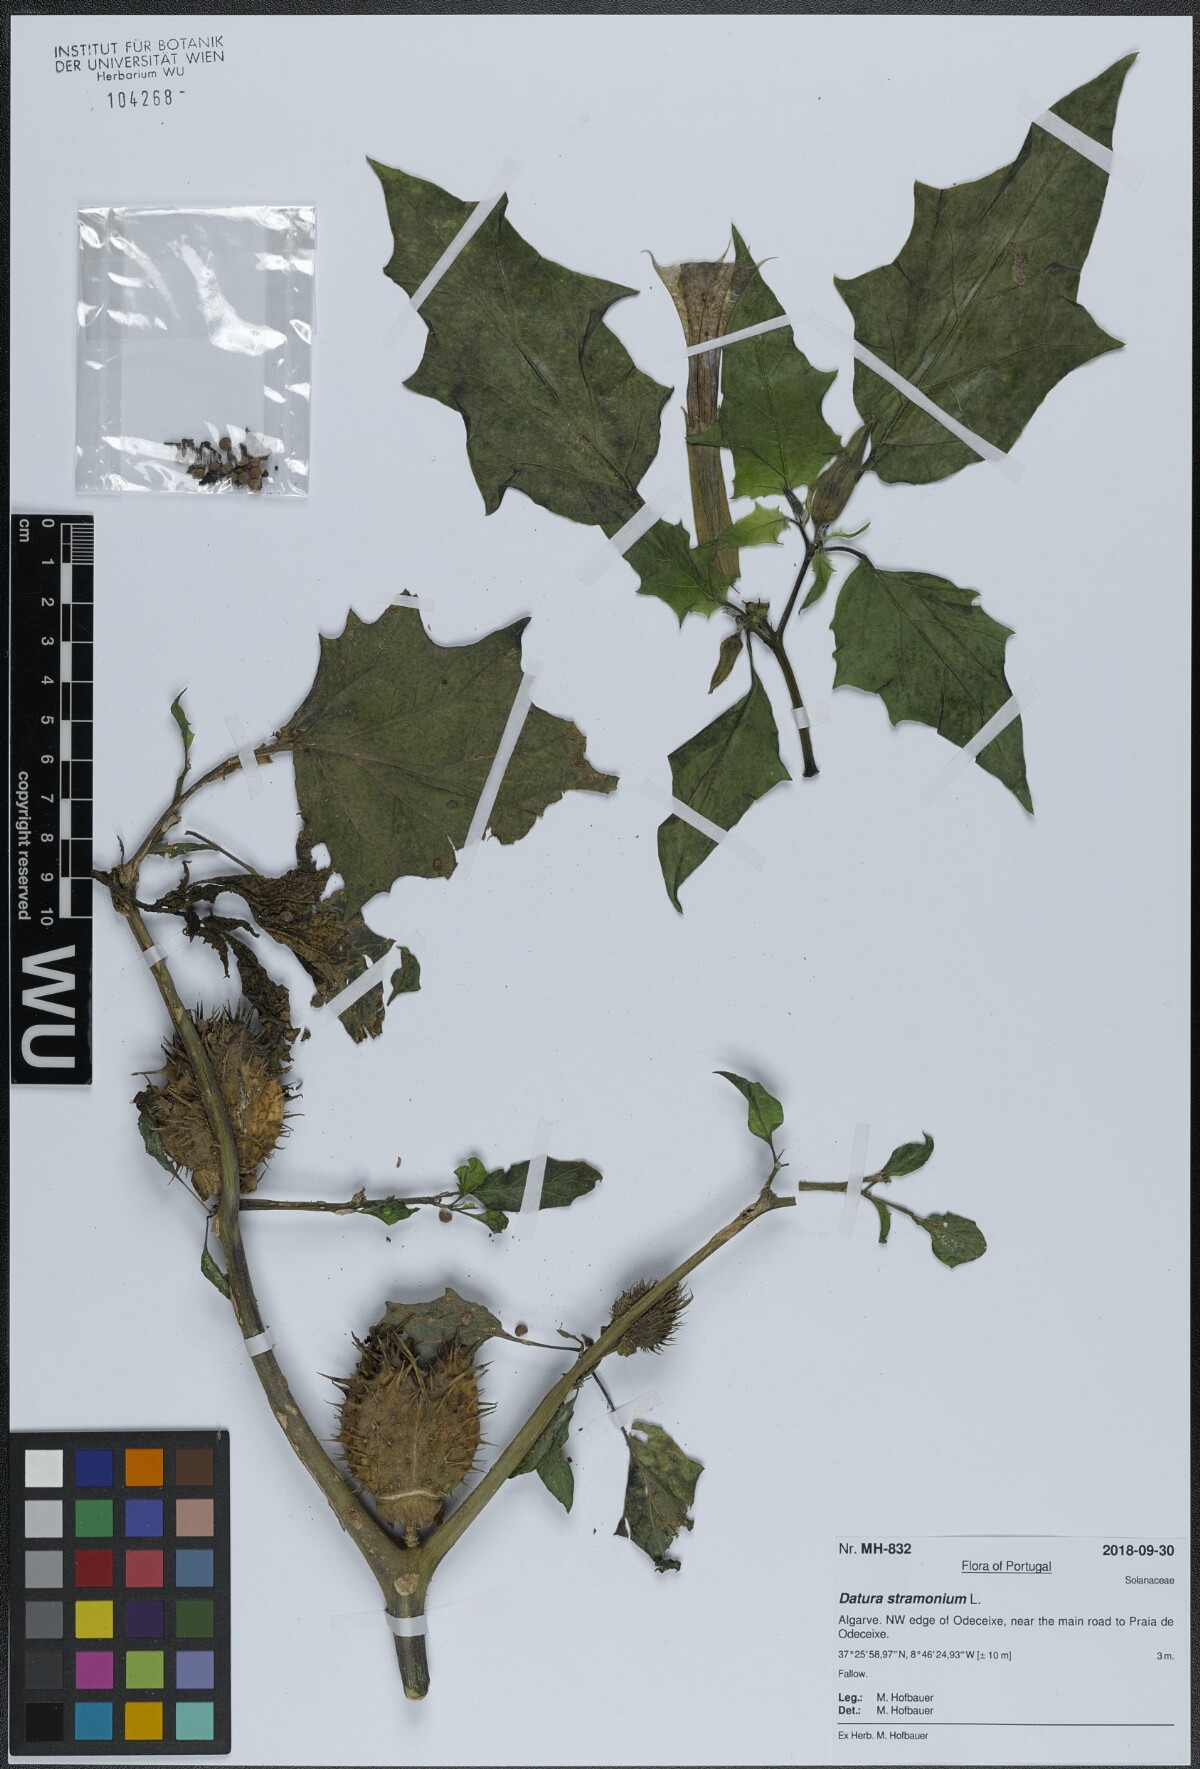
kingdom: Plantae
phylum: Tracheophyta
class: Magnoliopsida
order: Solanales
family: Solanaceae
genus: Datura
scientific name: Datura stramonium
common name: Thorn-apple
